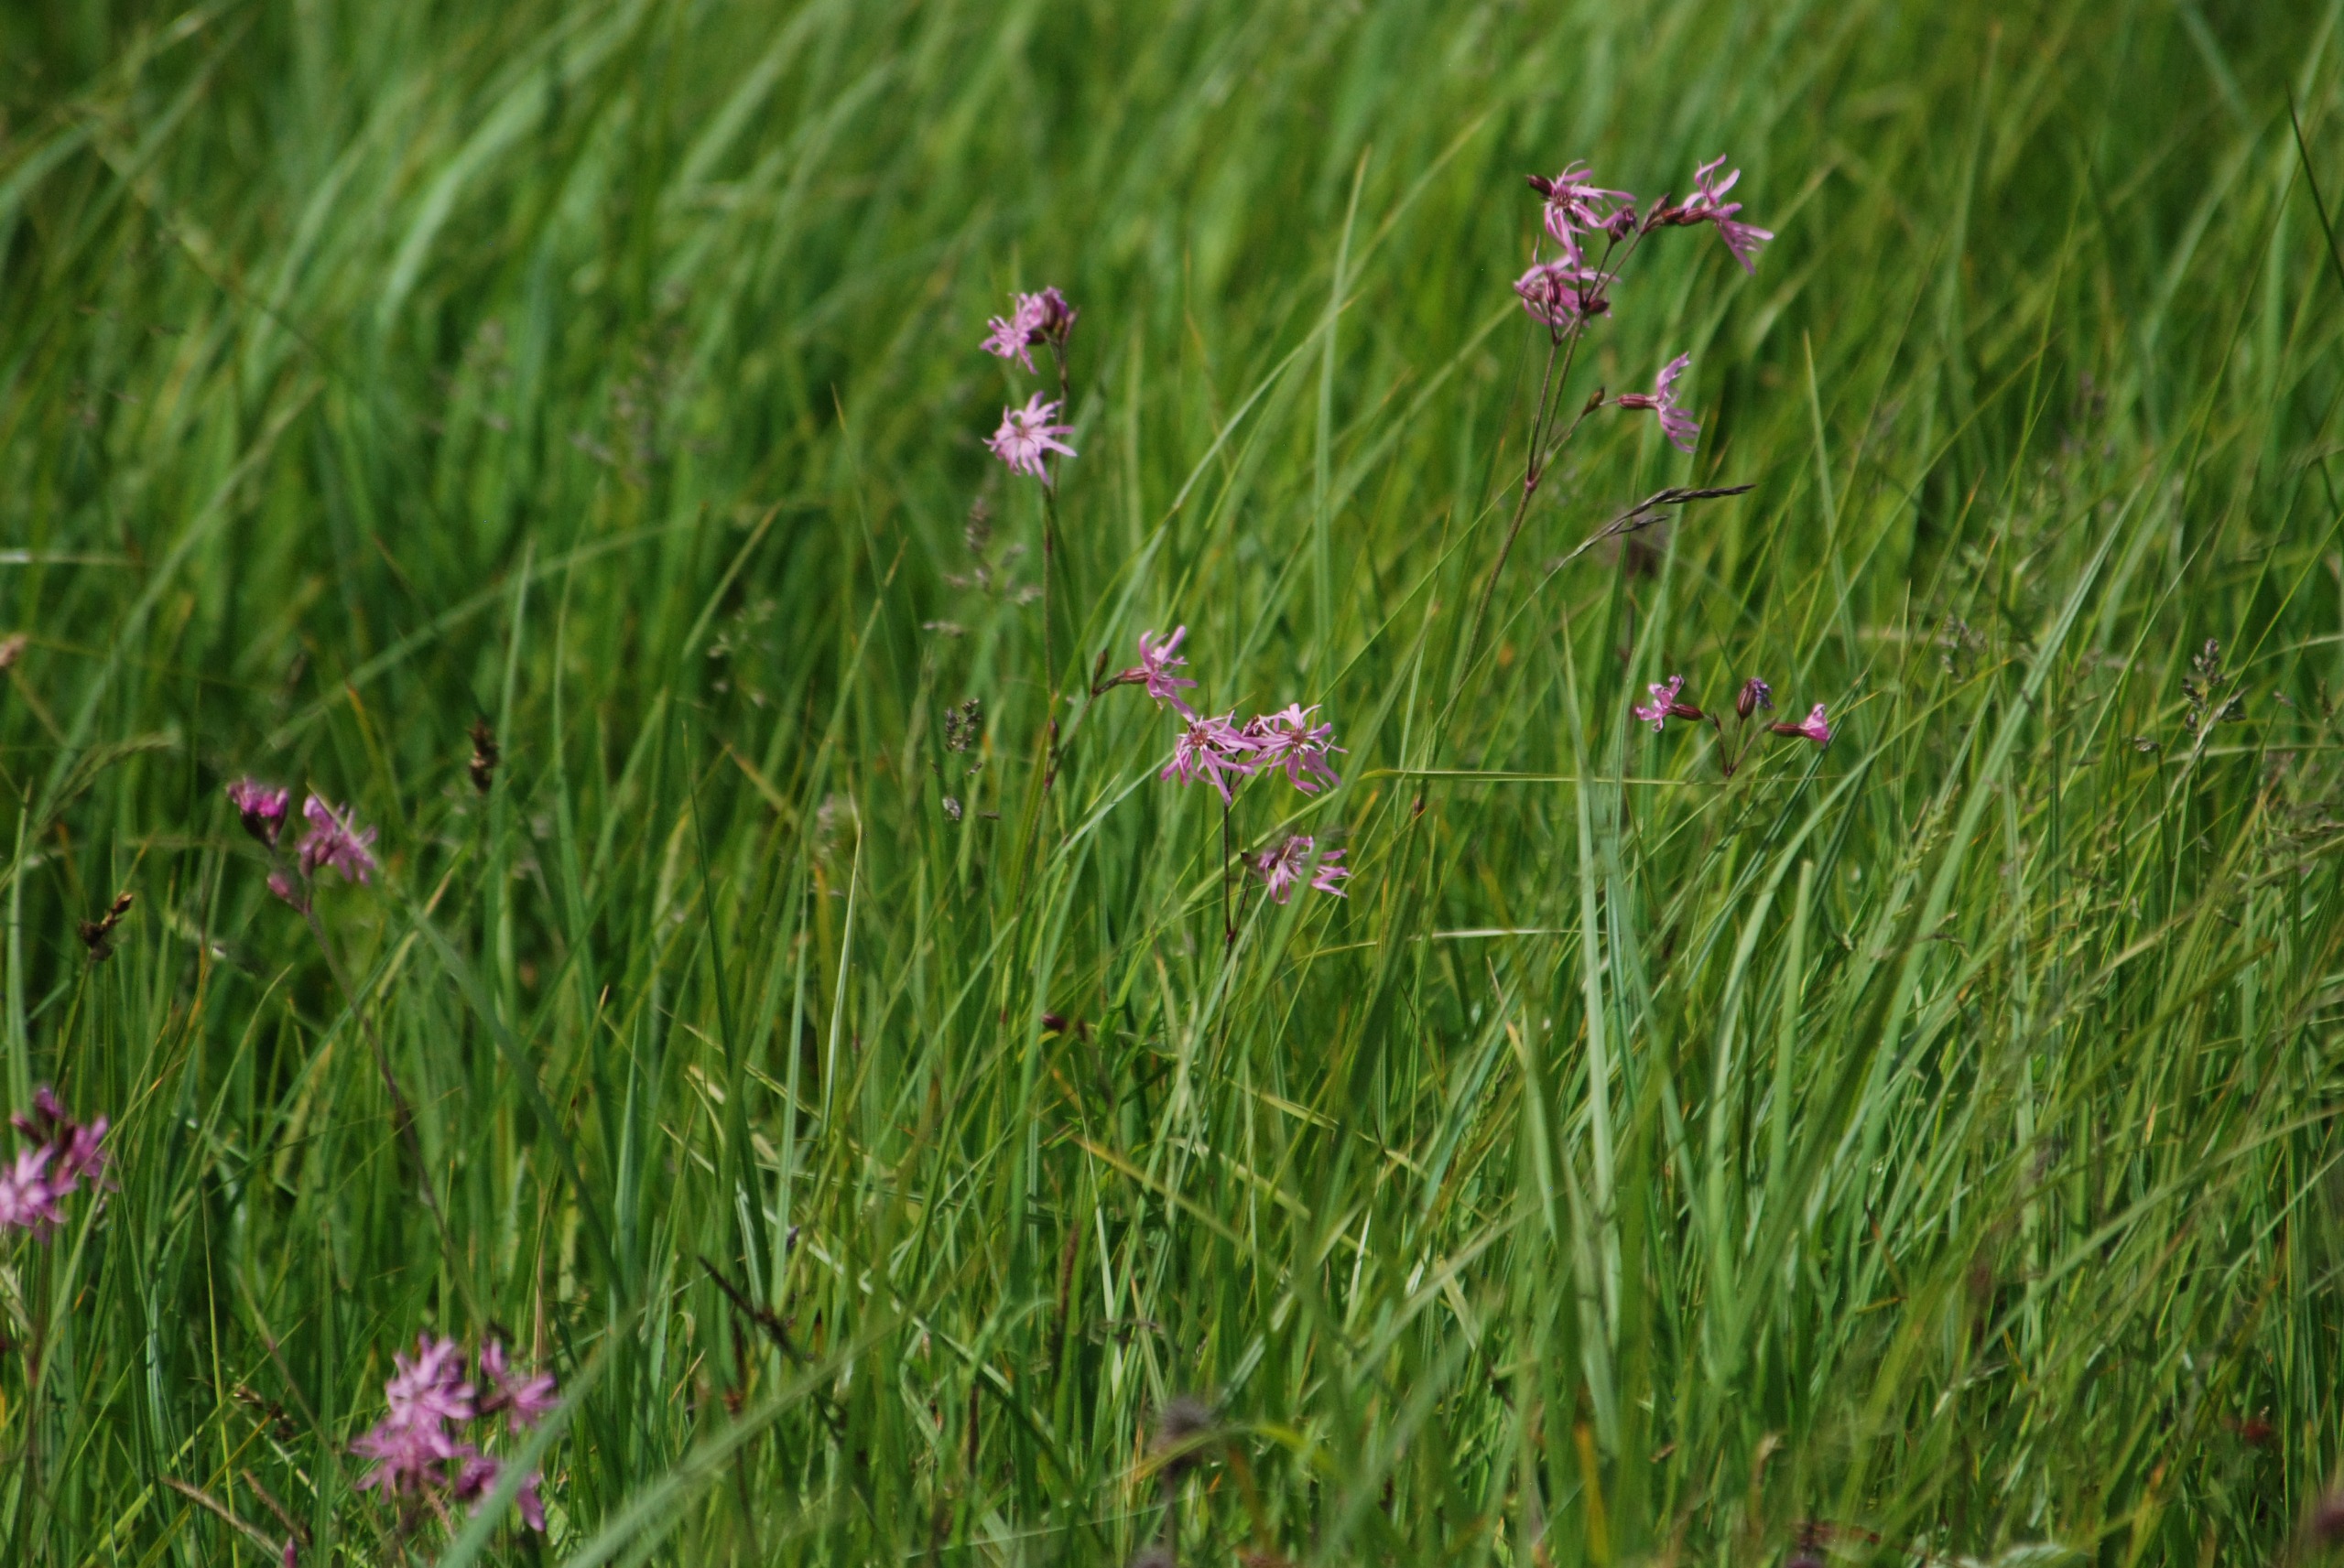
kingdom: Plantae
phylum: Tracheophyta
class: Magnoliopsida
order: Caryophyllales
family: Caryophyllaceae
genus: Silene
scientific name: Silene flos-cuculi
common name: Trævlekrone
